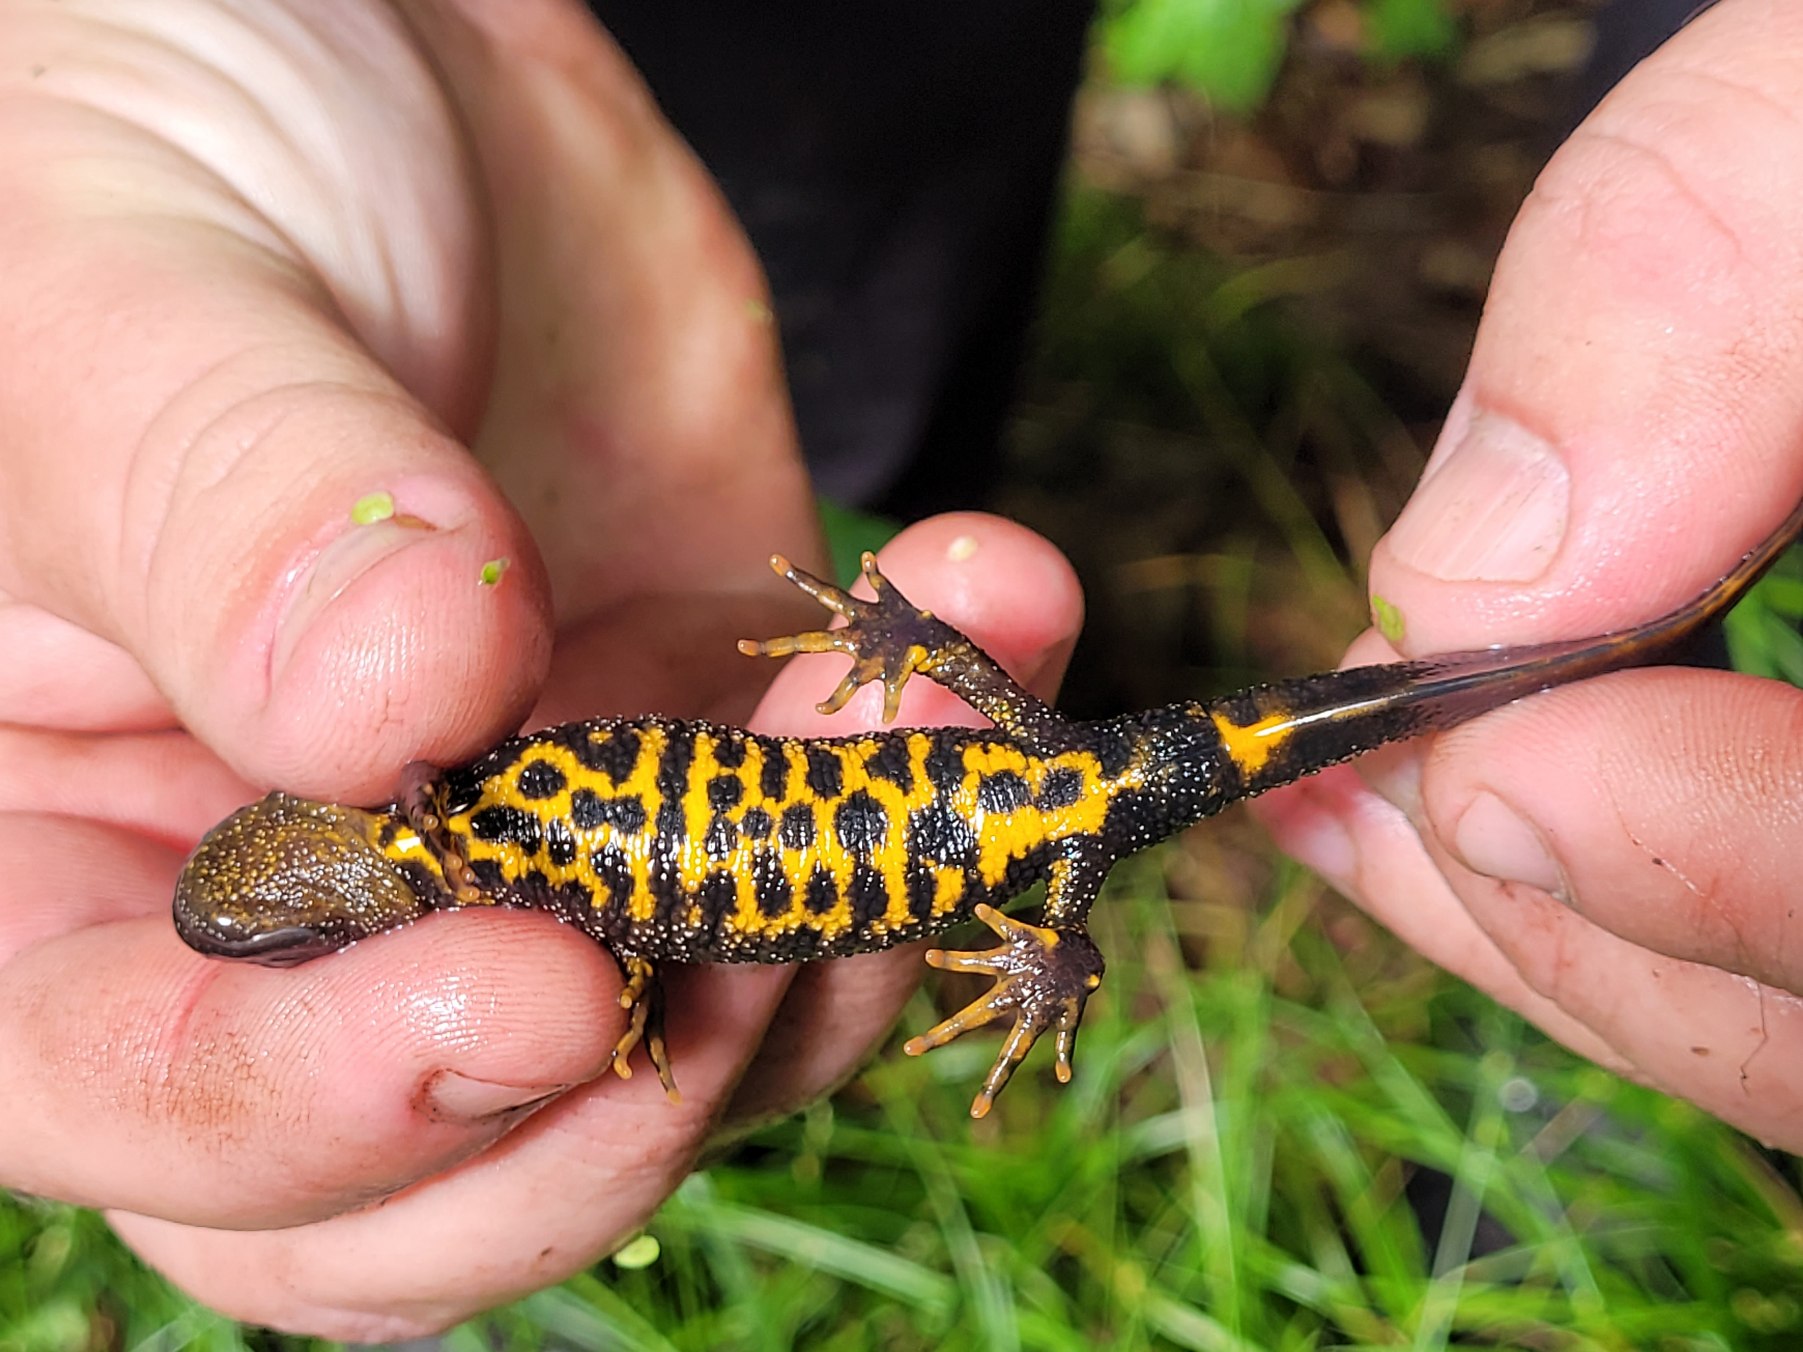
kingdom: Animalia
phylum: Chordata
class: Amphibia
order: Caudata
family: Salamandridae
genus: Triturus
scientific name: Triturus cristatus
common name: Stor vandsalamander
